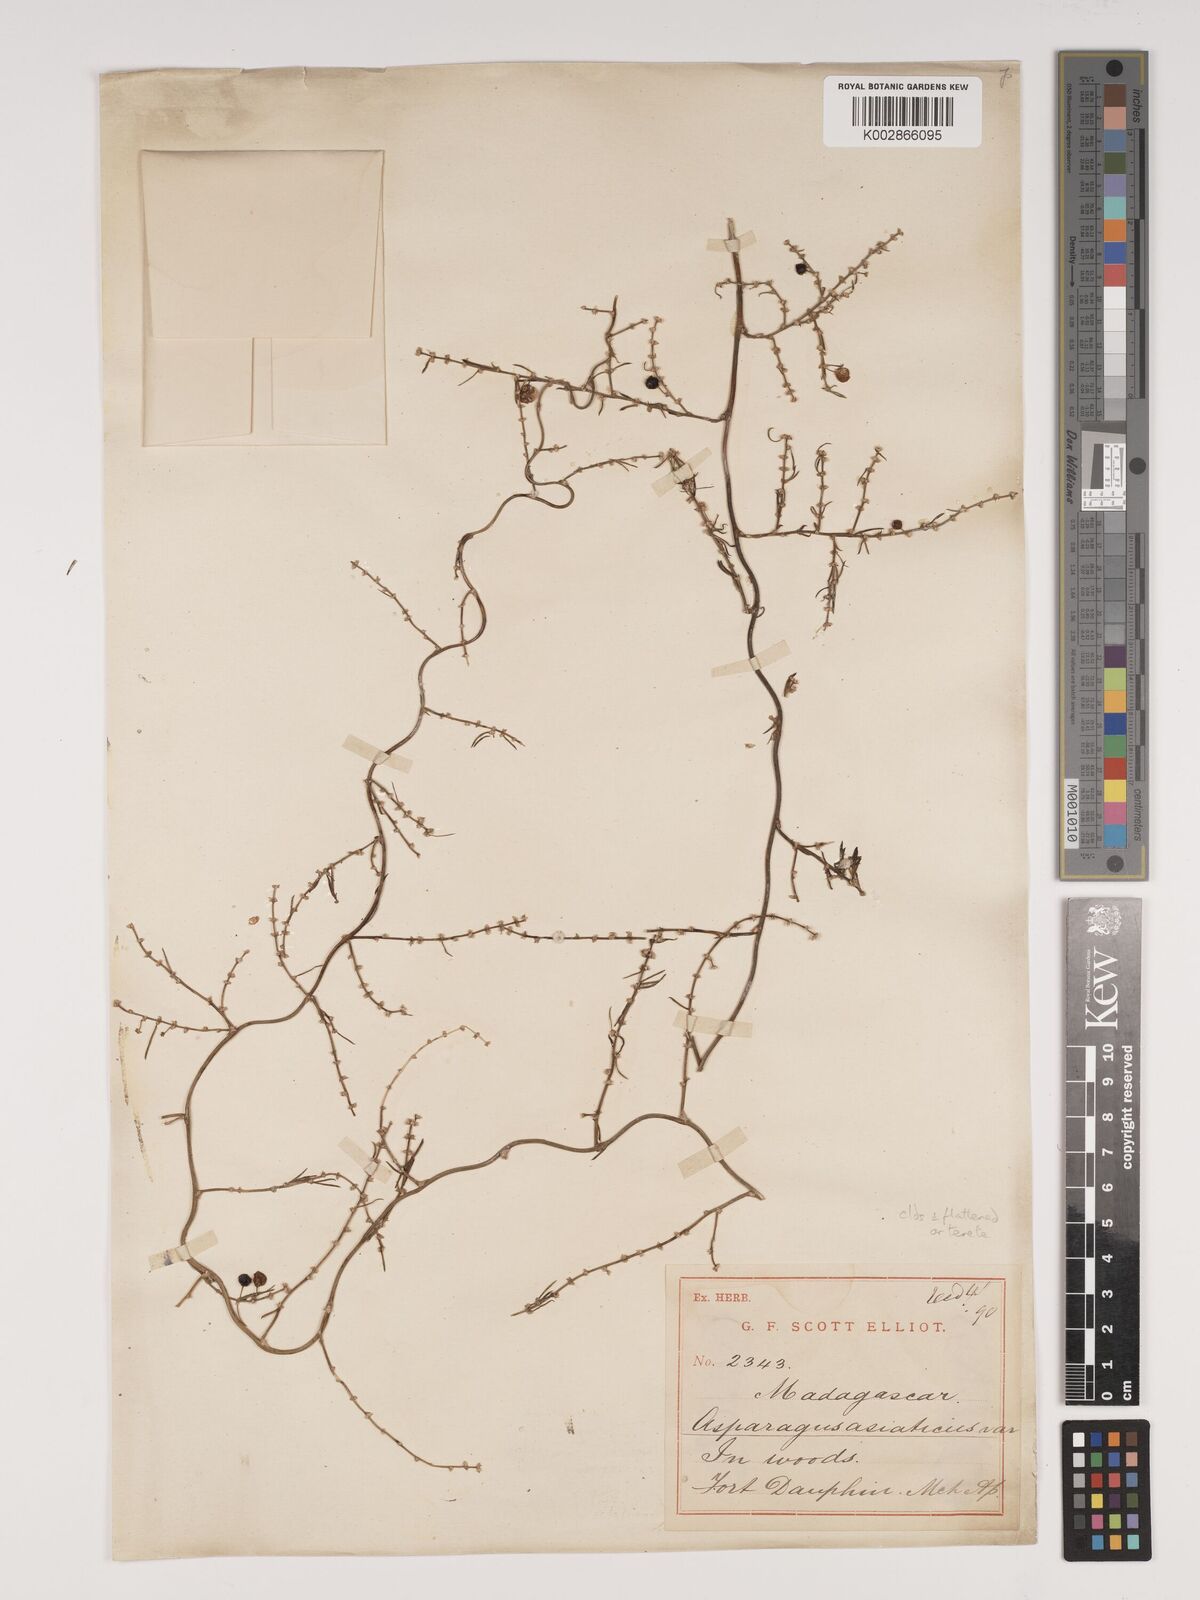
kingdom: Plantae
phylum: Tracheophyta
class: Liliopsida
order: Asparagales
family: Asparagaceae
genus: Asparagus
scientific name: Asparagus fasciculatus
